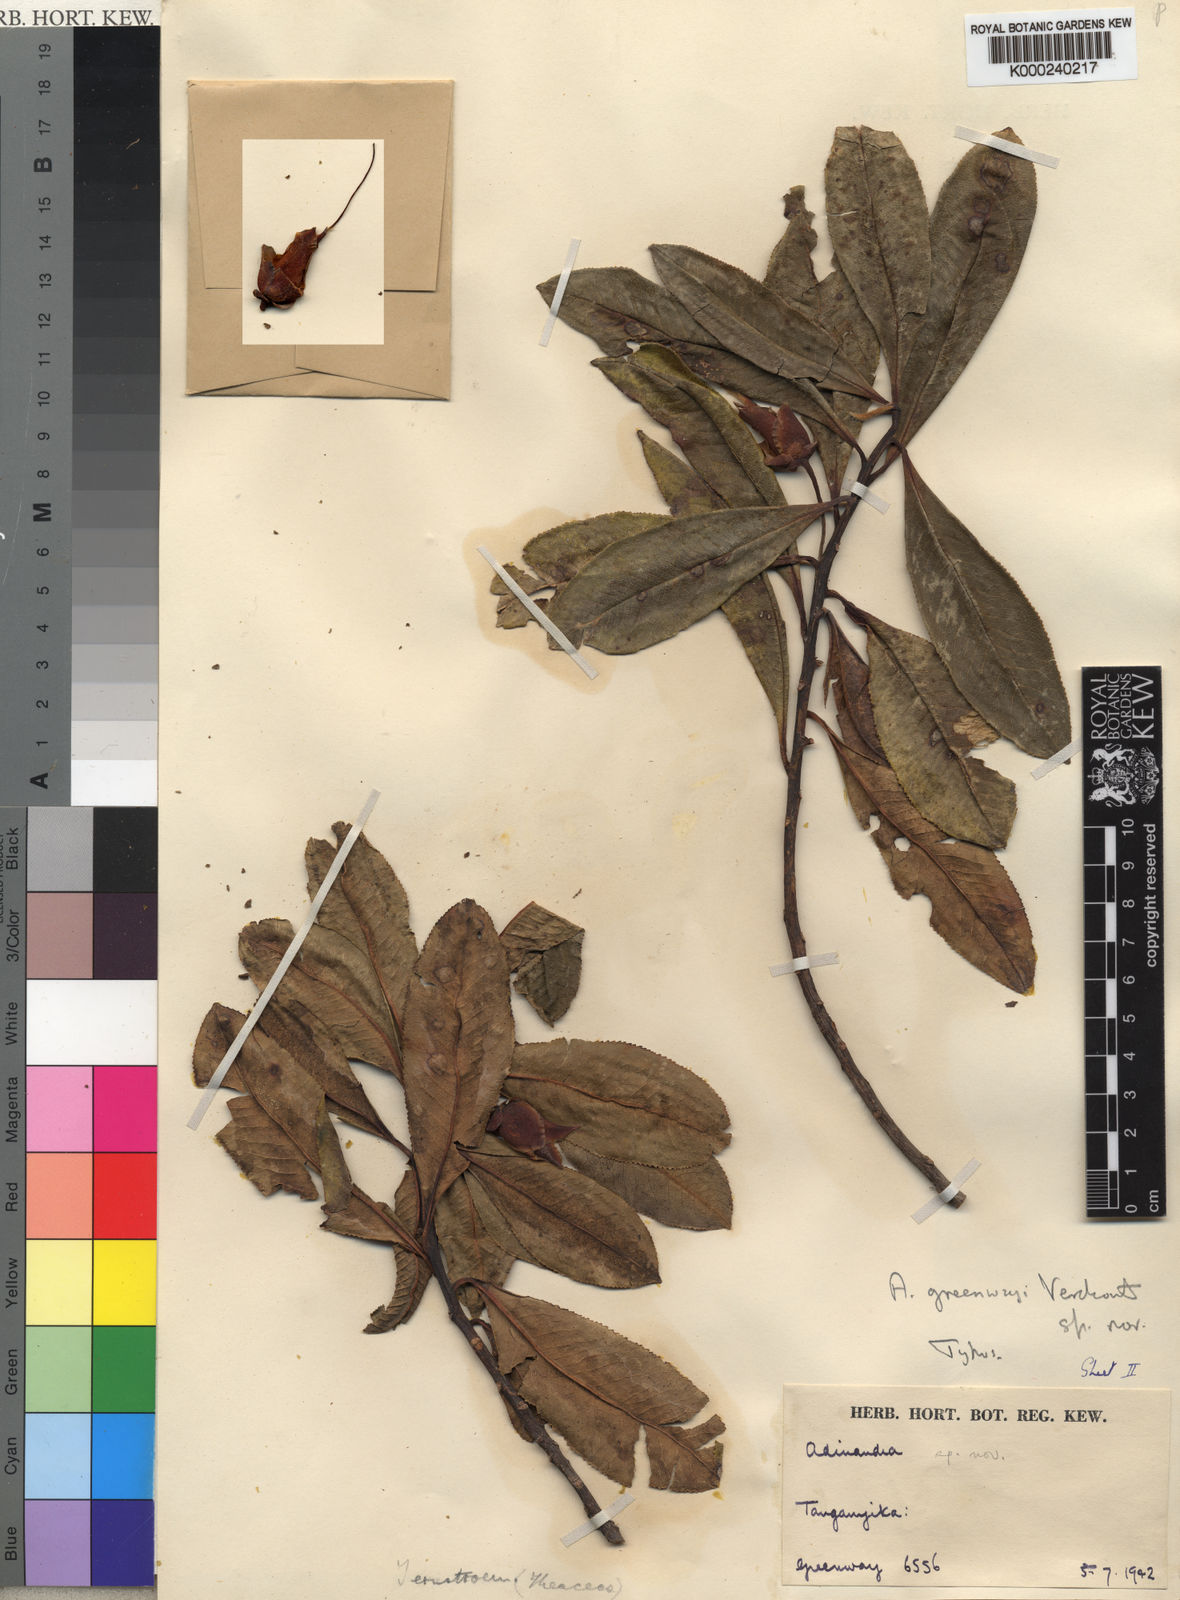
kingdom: Plantae
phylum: Tracheophyta
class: Magnoliopsida
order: Ericales
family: Pentaphylacaceae
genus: Balthasaria
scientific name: Balthasaria schliebenii
